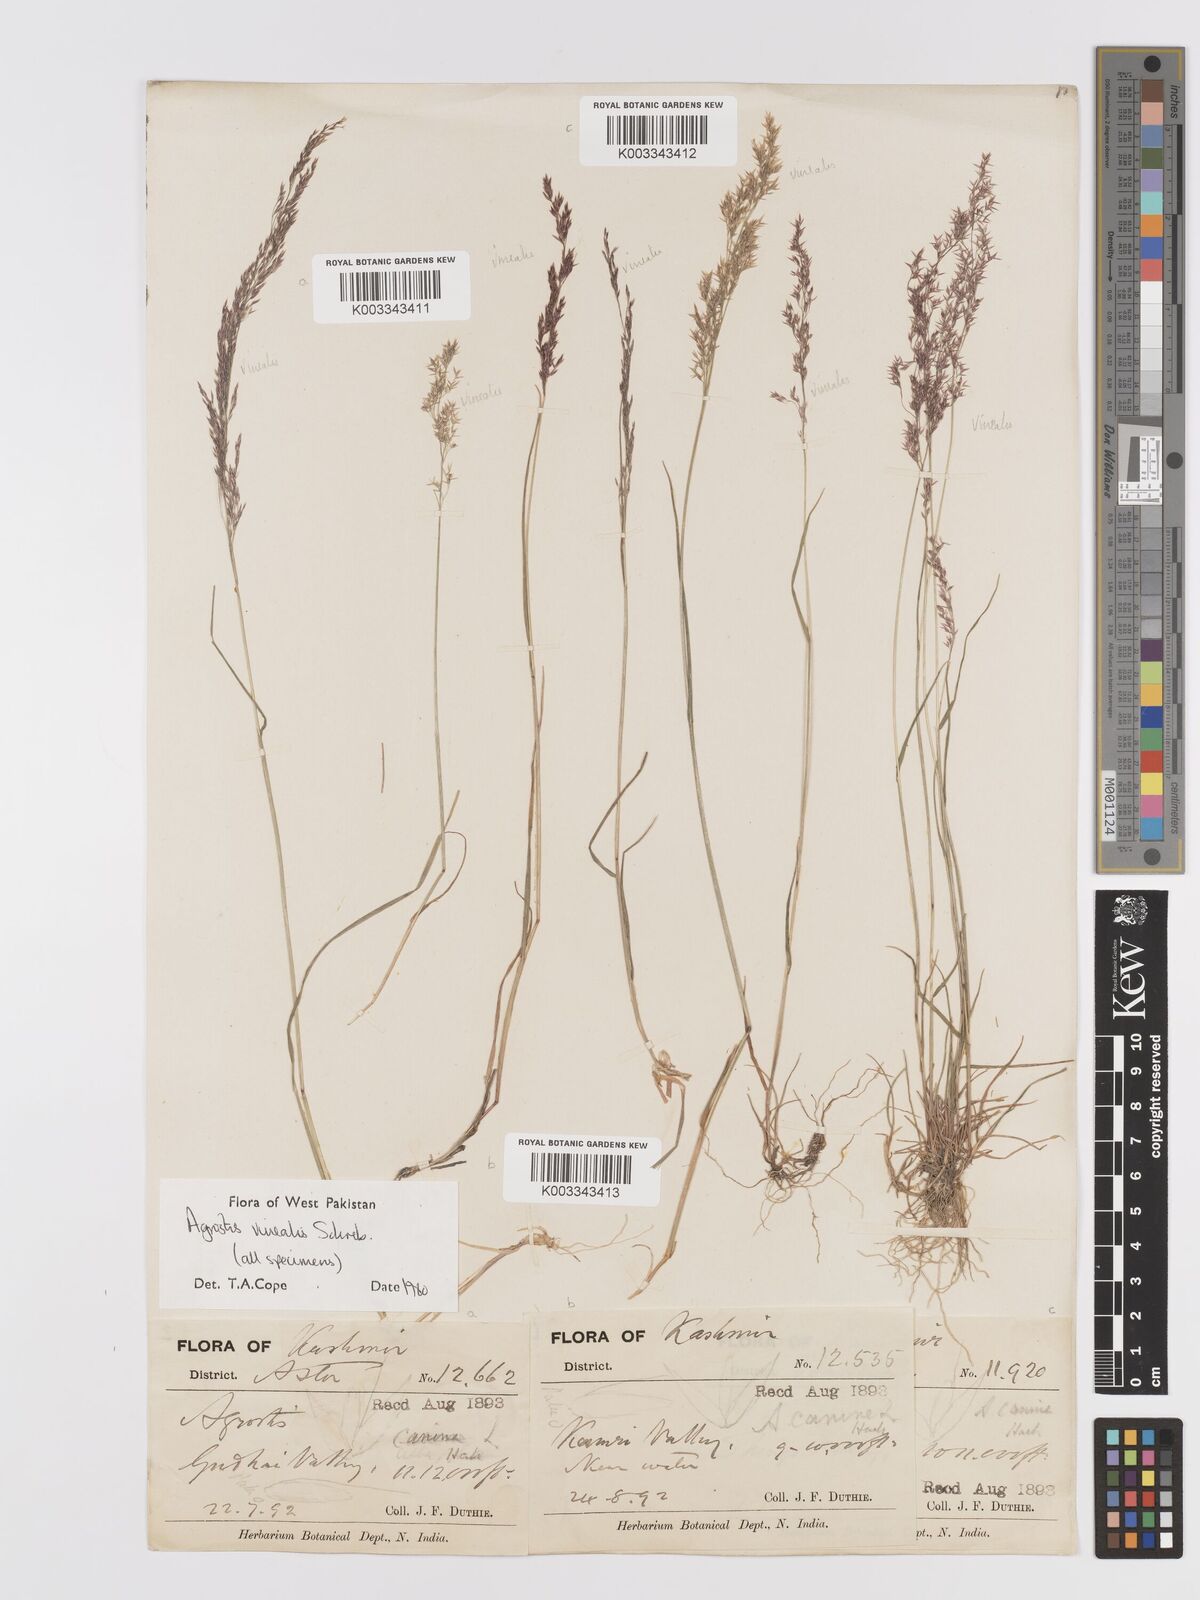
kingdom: Plantae
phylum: Tracheophyta
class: Liliopsida
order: Poales
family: Poaceae
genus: Agrostis
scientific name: Agrostis vinealis
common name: Brown bent
